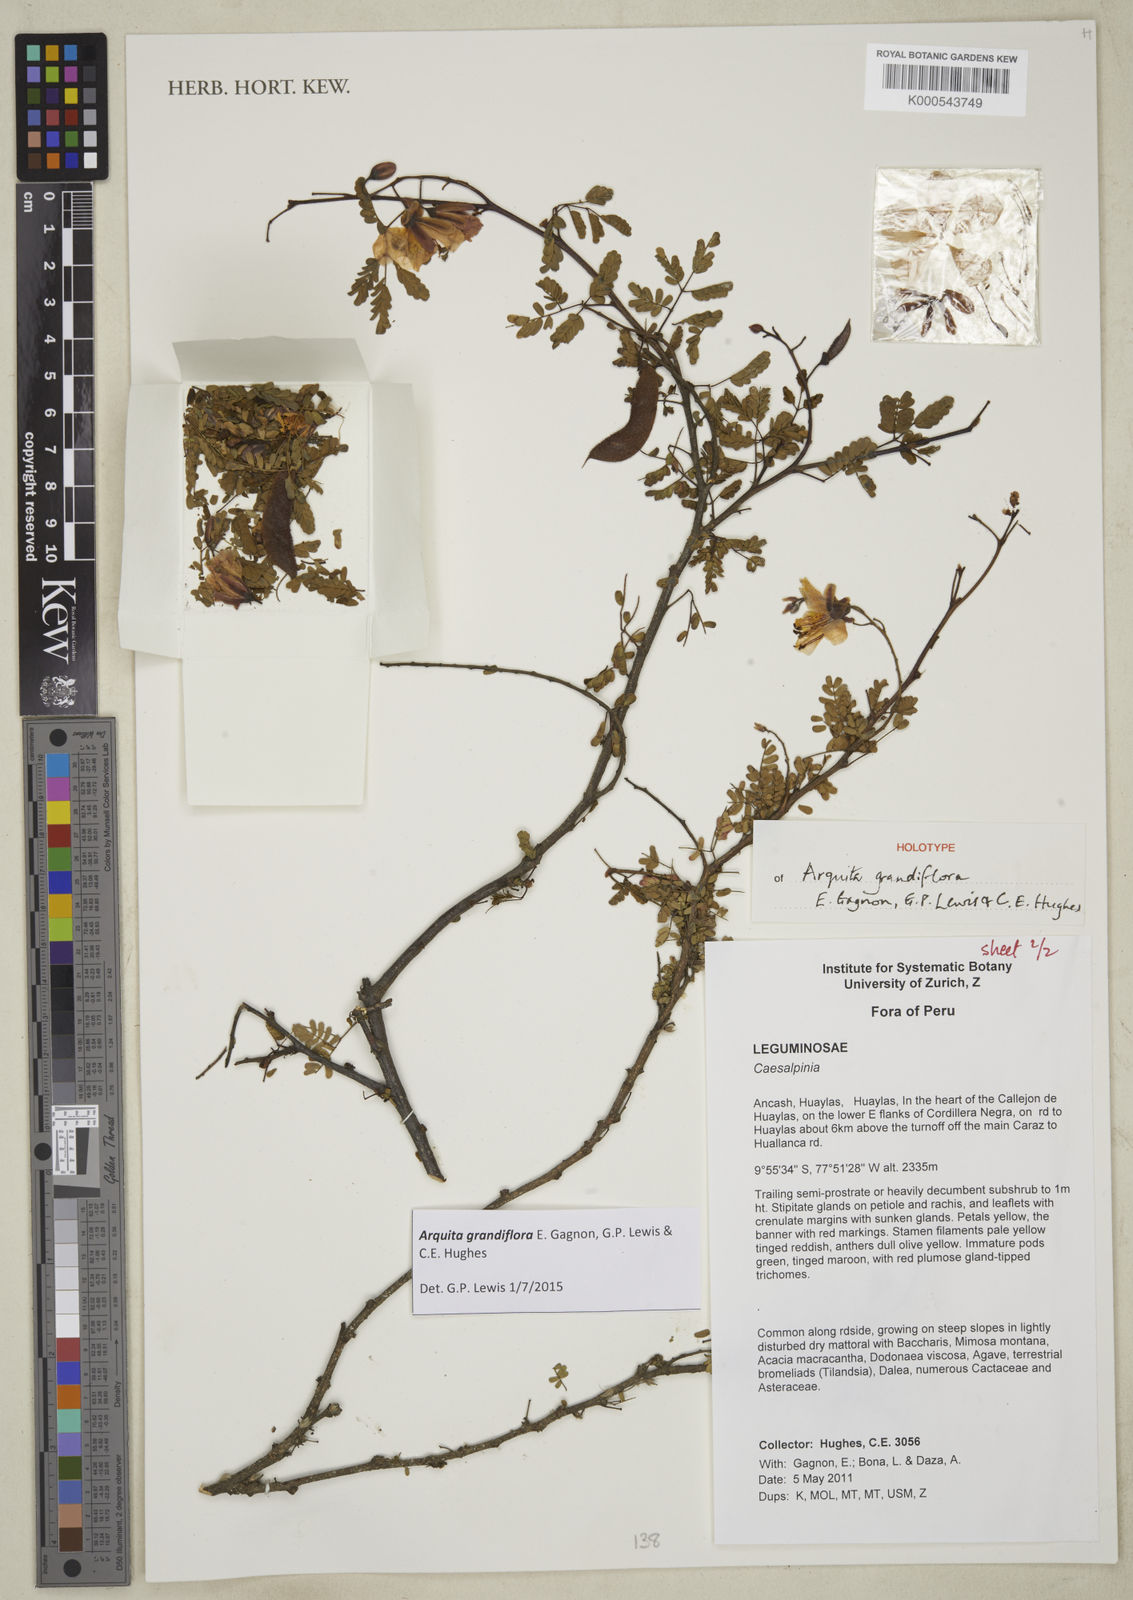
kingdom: Plantae
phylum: Tracheophyta
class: Magnoliopsida
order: Fabales
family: Fabaceae
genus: Arquita
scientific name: Arquita grandiflora
